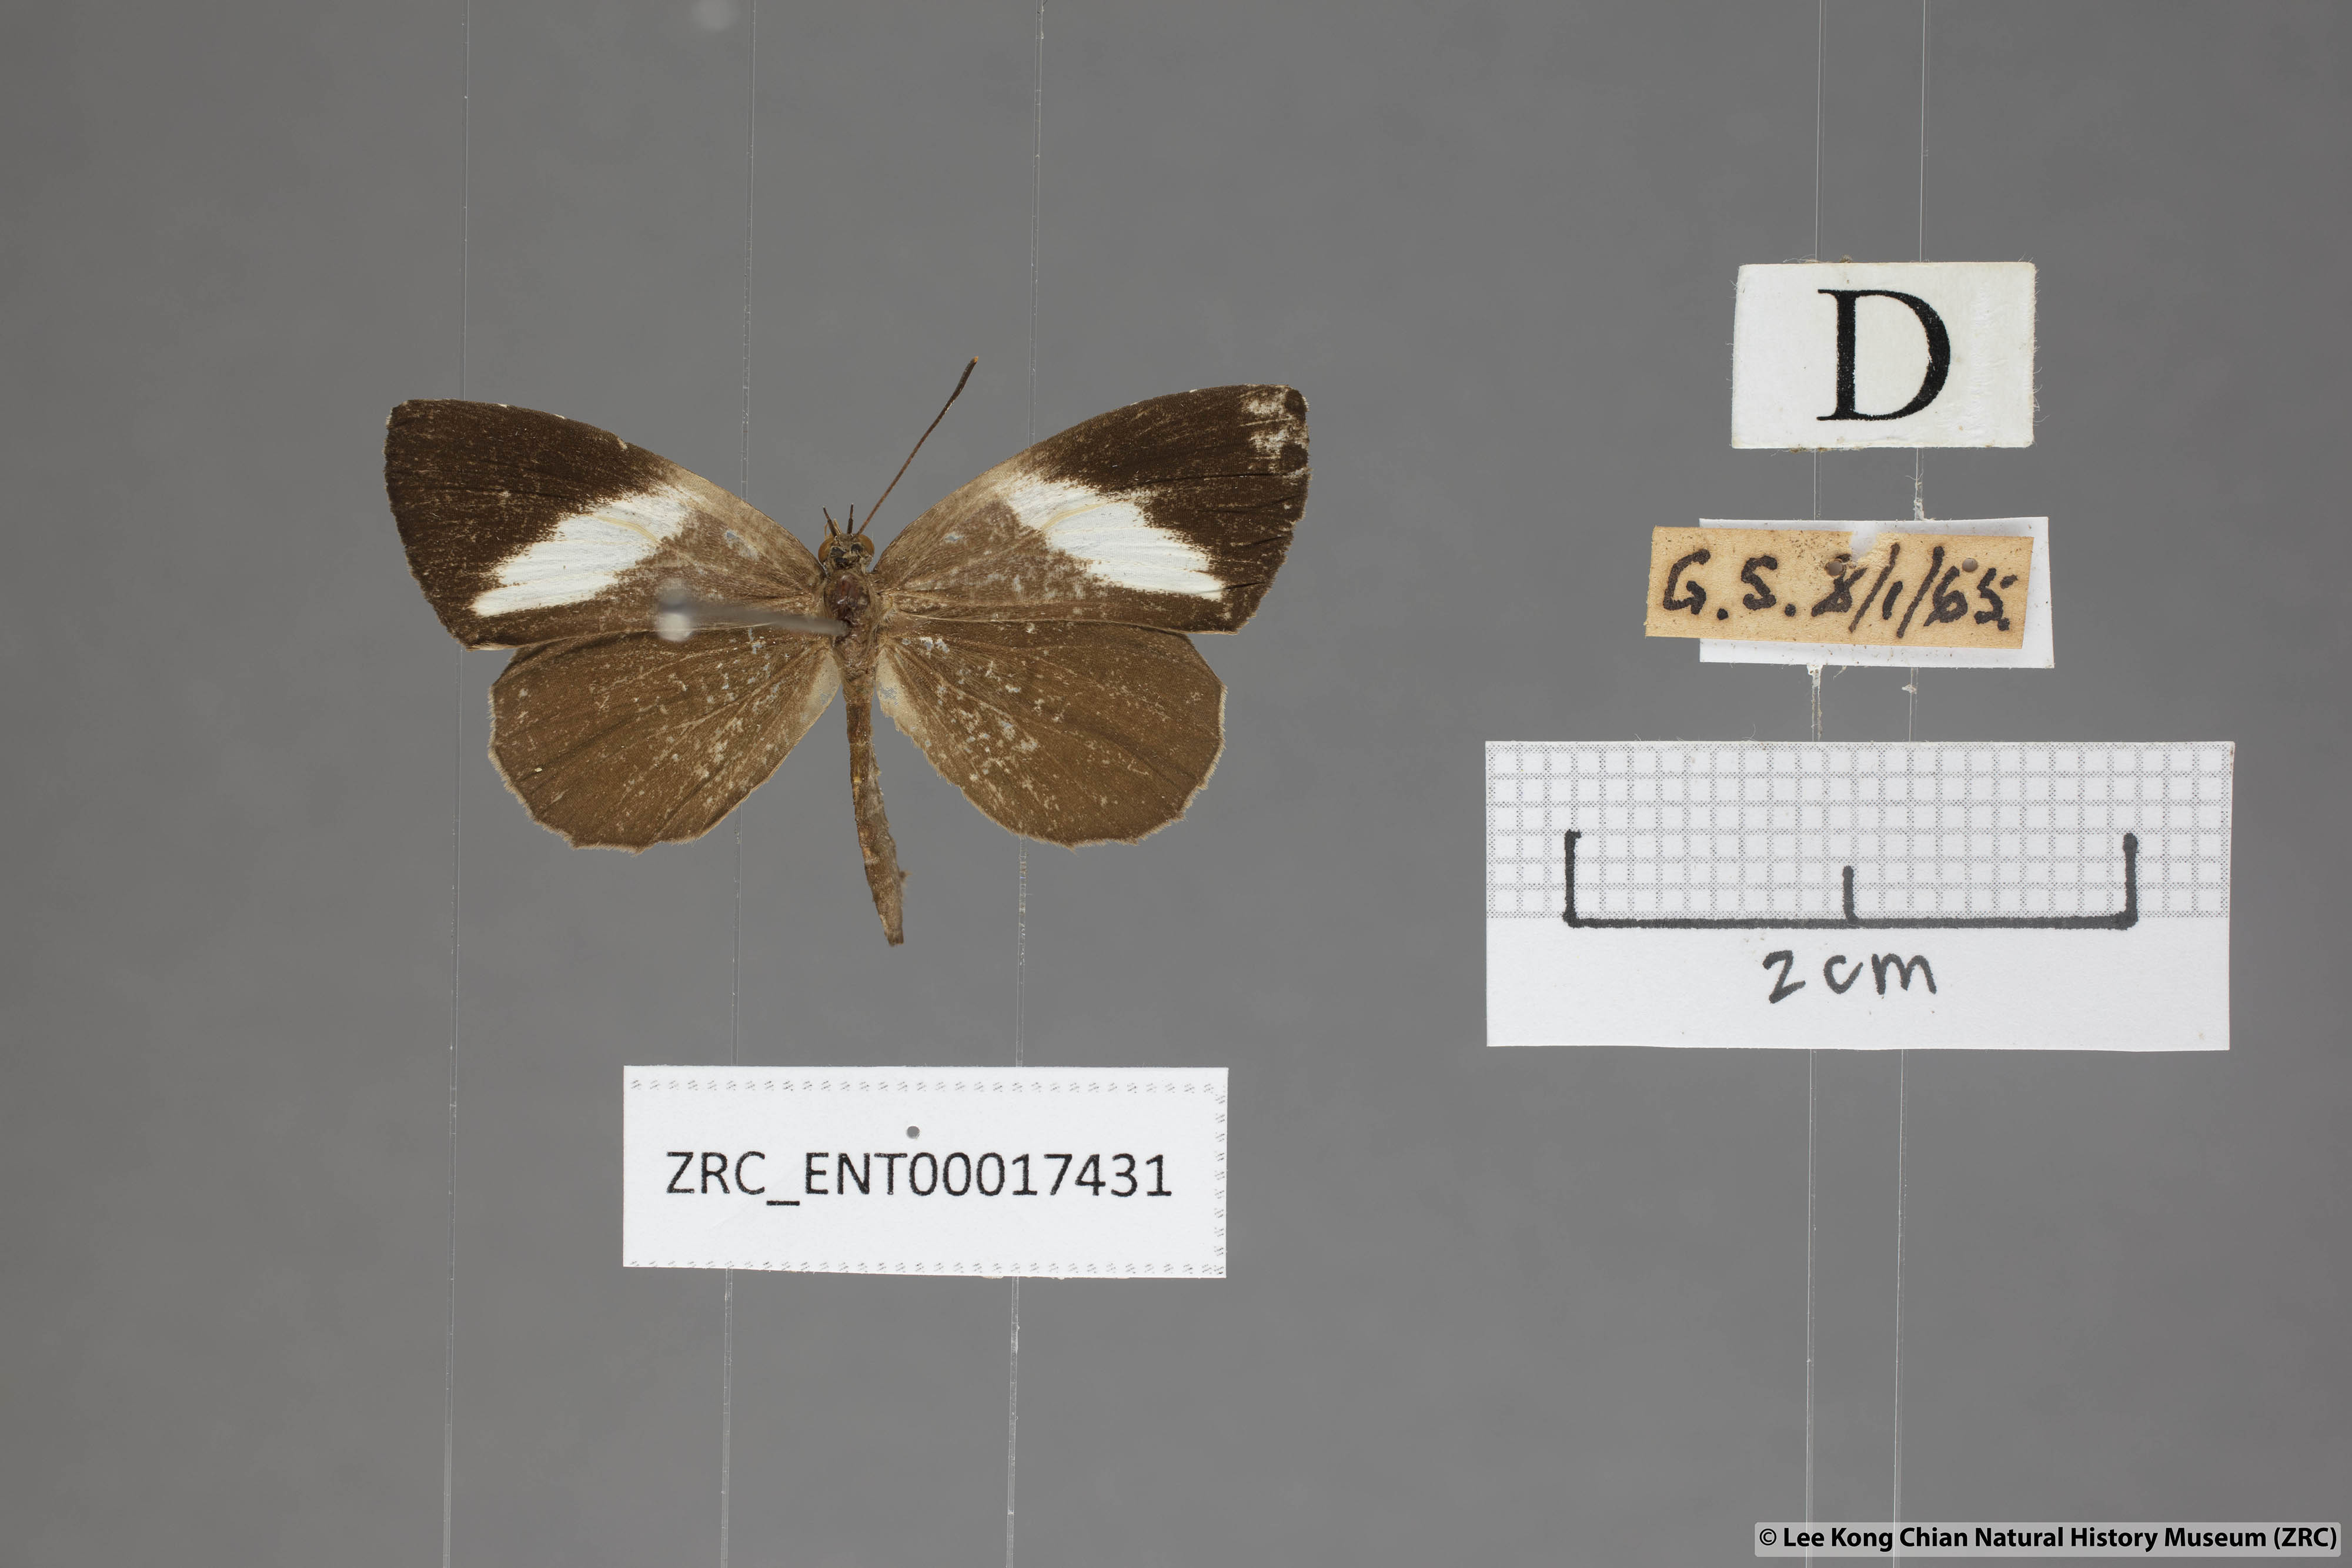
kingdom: Animalia
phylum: Arthropoda
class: Insecta
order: Lepidoptera
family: Lycaenidae
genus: Miletus
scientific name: Miletus biggsii
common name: Bigg's brownie
